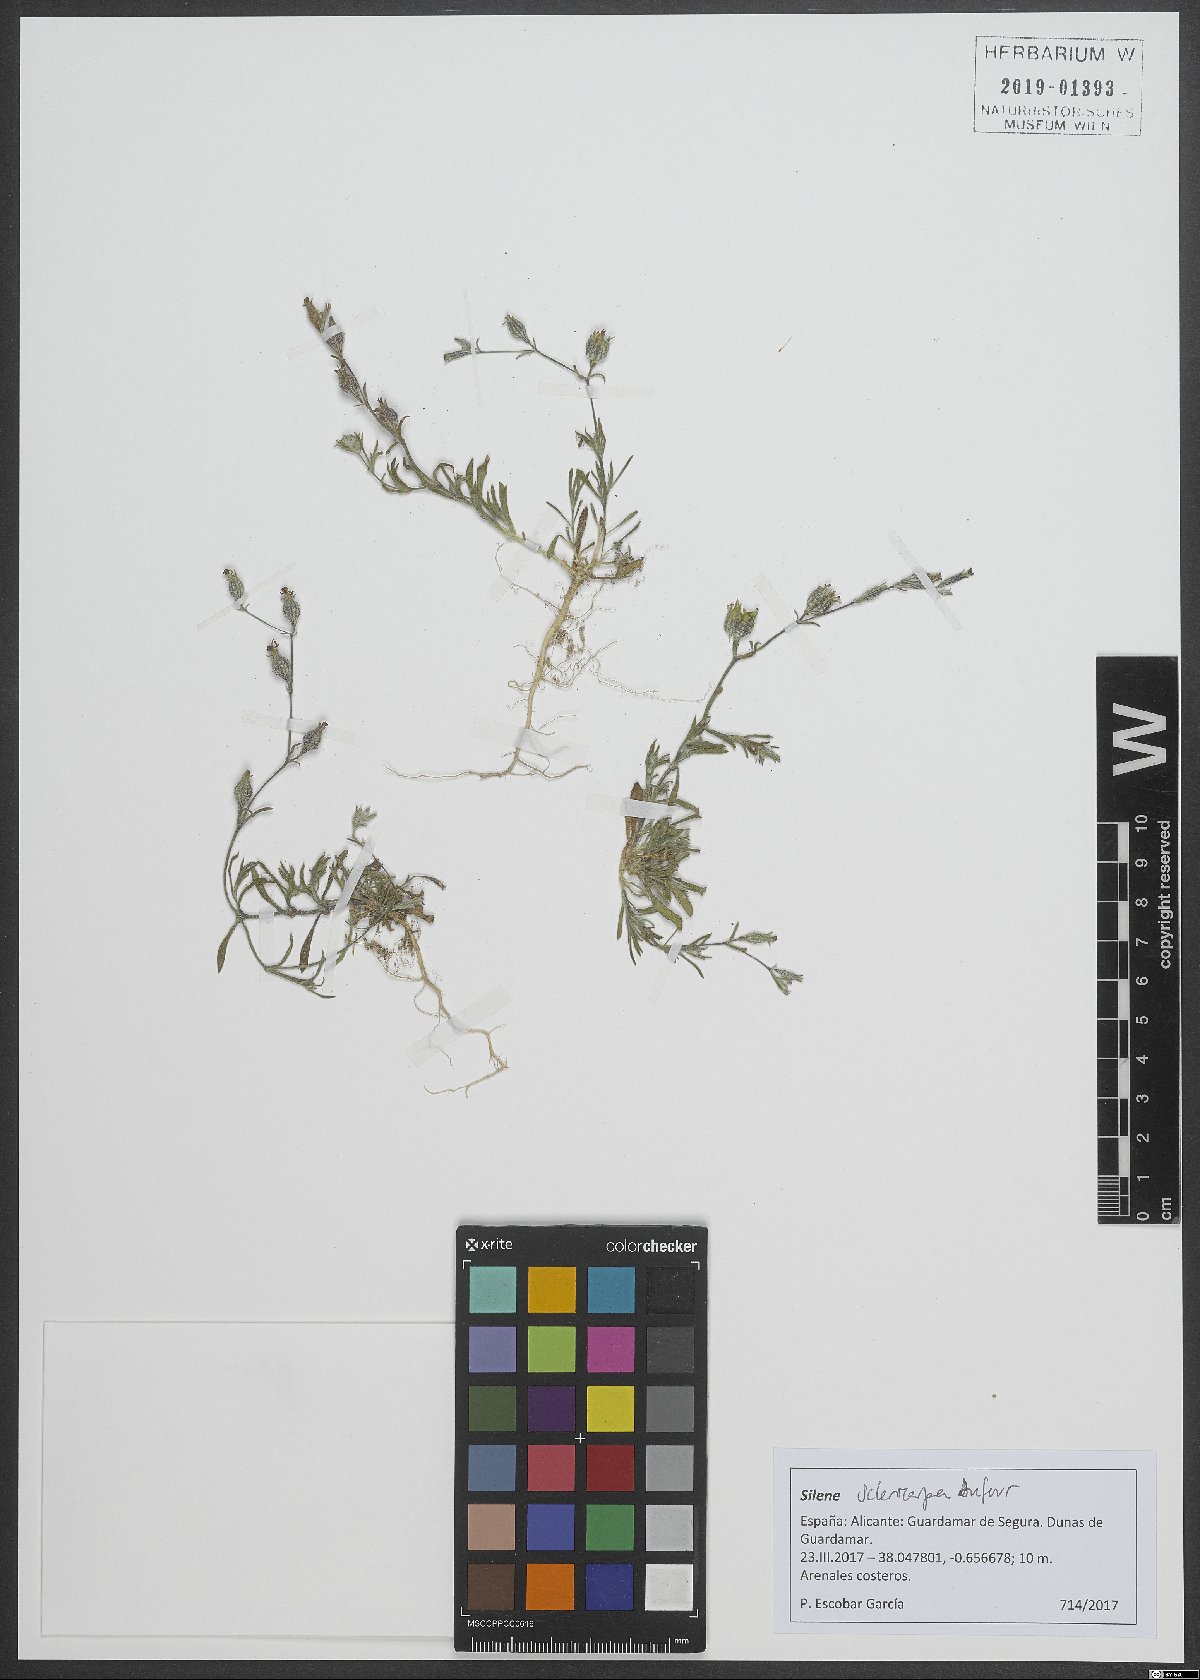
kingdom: Plantae
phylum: Tracheophyta
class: Magnoliopsida
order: Caryophyllales
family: Caryophyllaceae
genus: Silene
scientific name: Silene sclerocarpa
